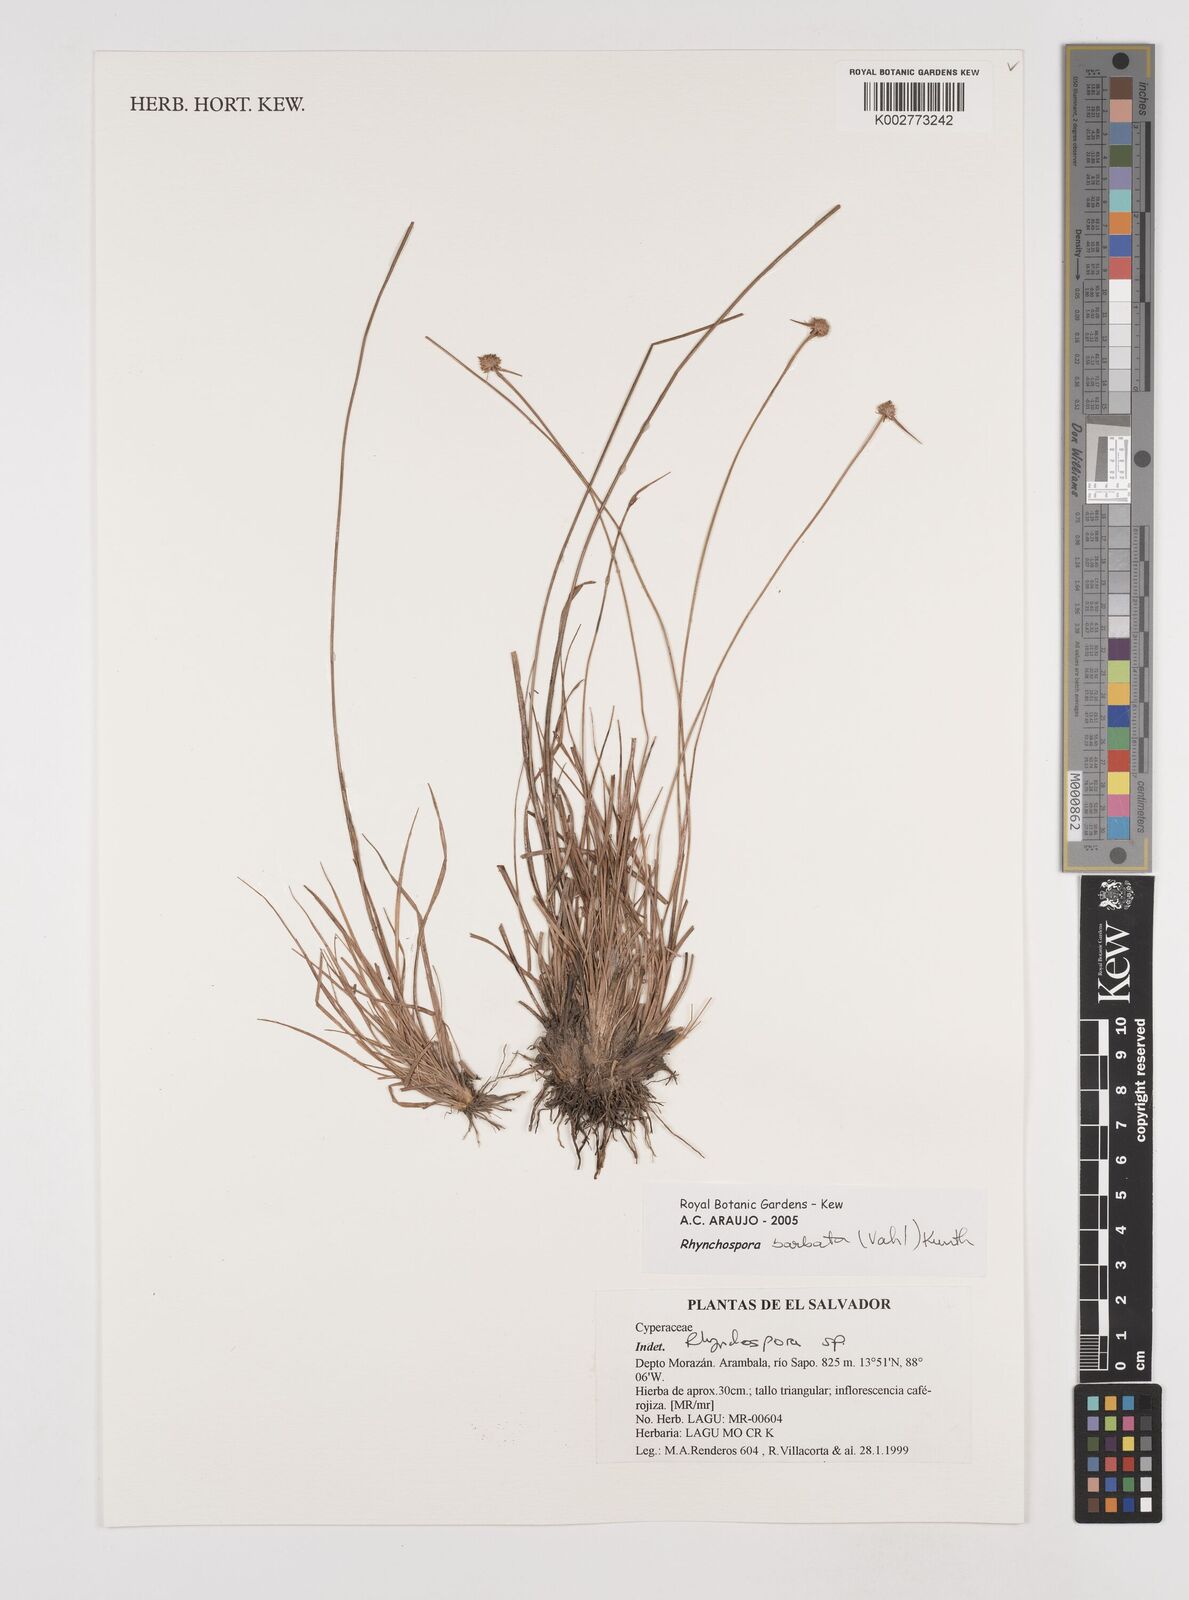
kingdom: Plantae
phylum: Tracheophyta
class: Liliopsida
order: Poales
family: Cyperaceae
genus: Rhynchospora
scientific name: Rhynchospora barbata
